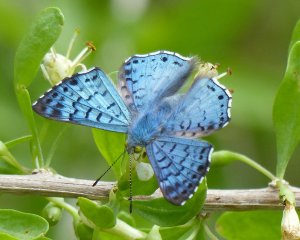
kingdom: Animalia
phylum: Arthropoda
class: Insecta
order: Lepidoptera
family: Riodinidae
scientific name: Riodinidae
